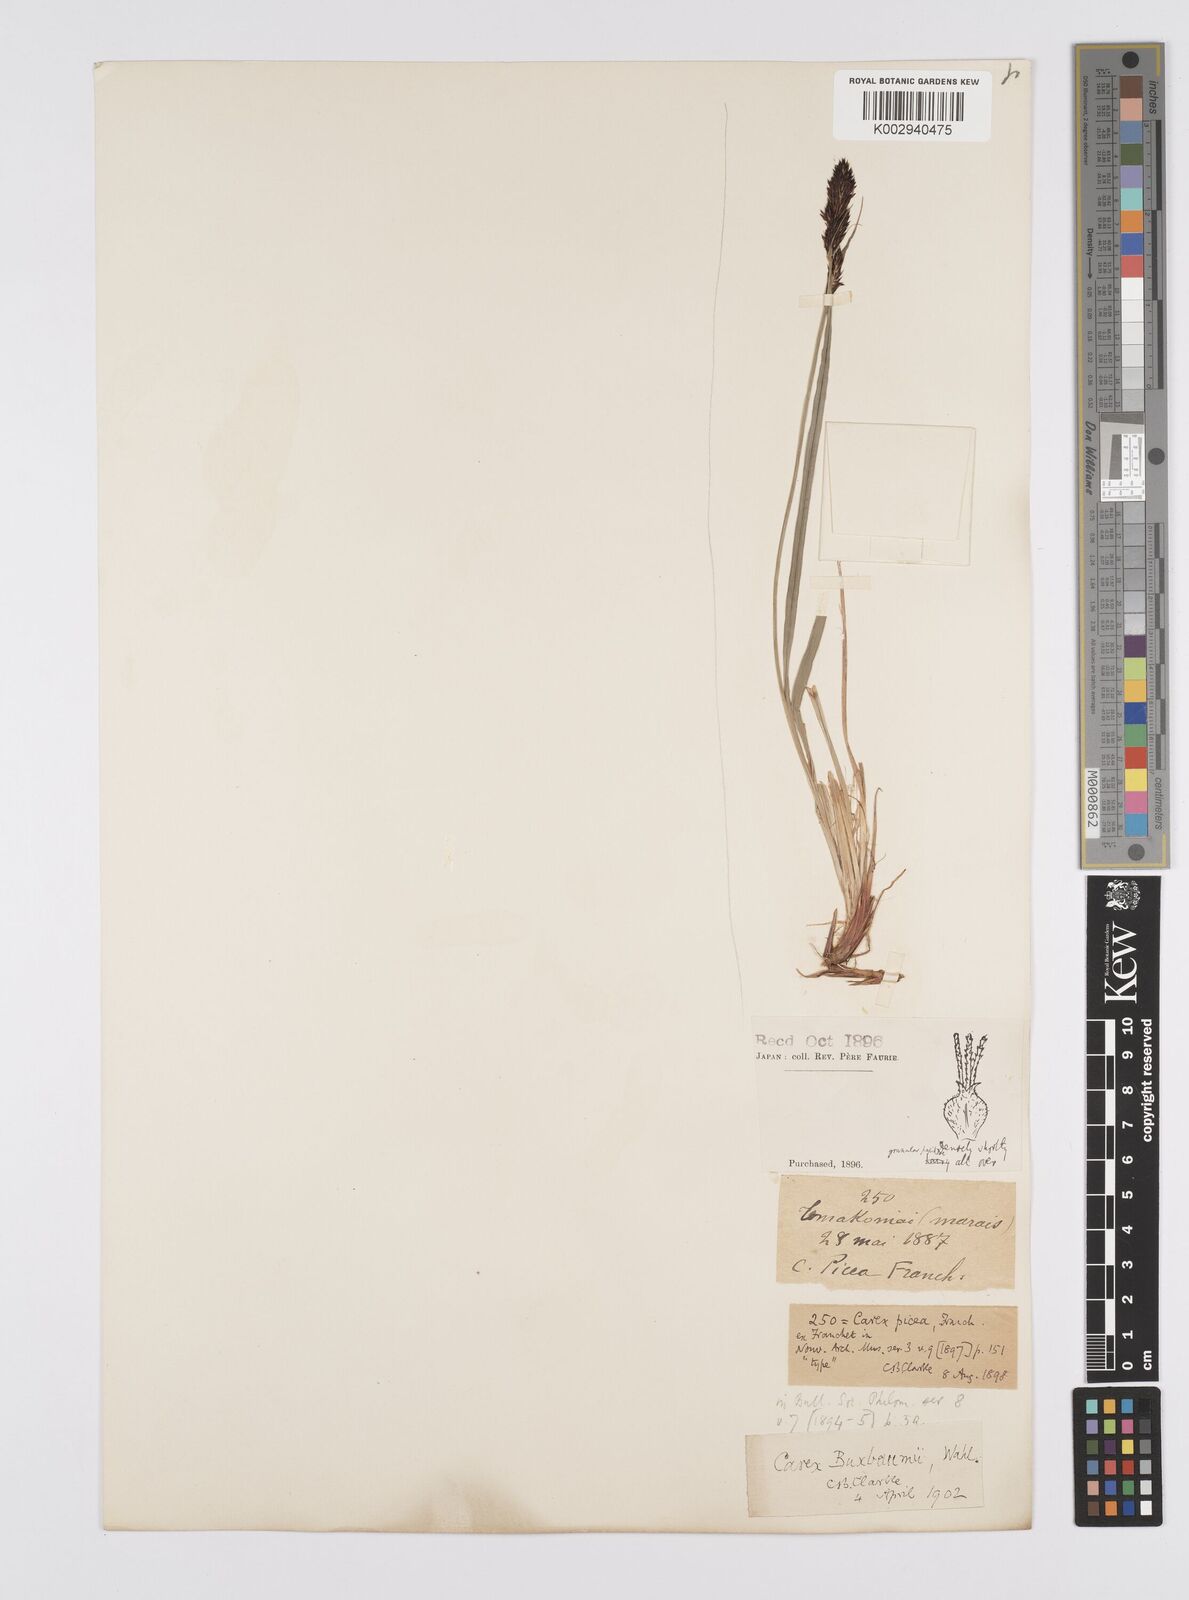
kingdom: Plantae
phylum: Tracheophyta
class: Liliopsida
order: Poales
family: Cyperaceae
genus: Carex
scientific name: Carex buxbaumii
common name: Club sedge
